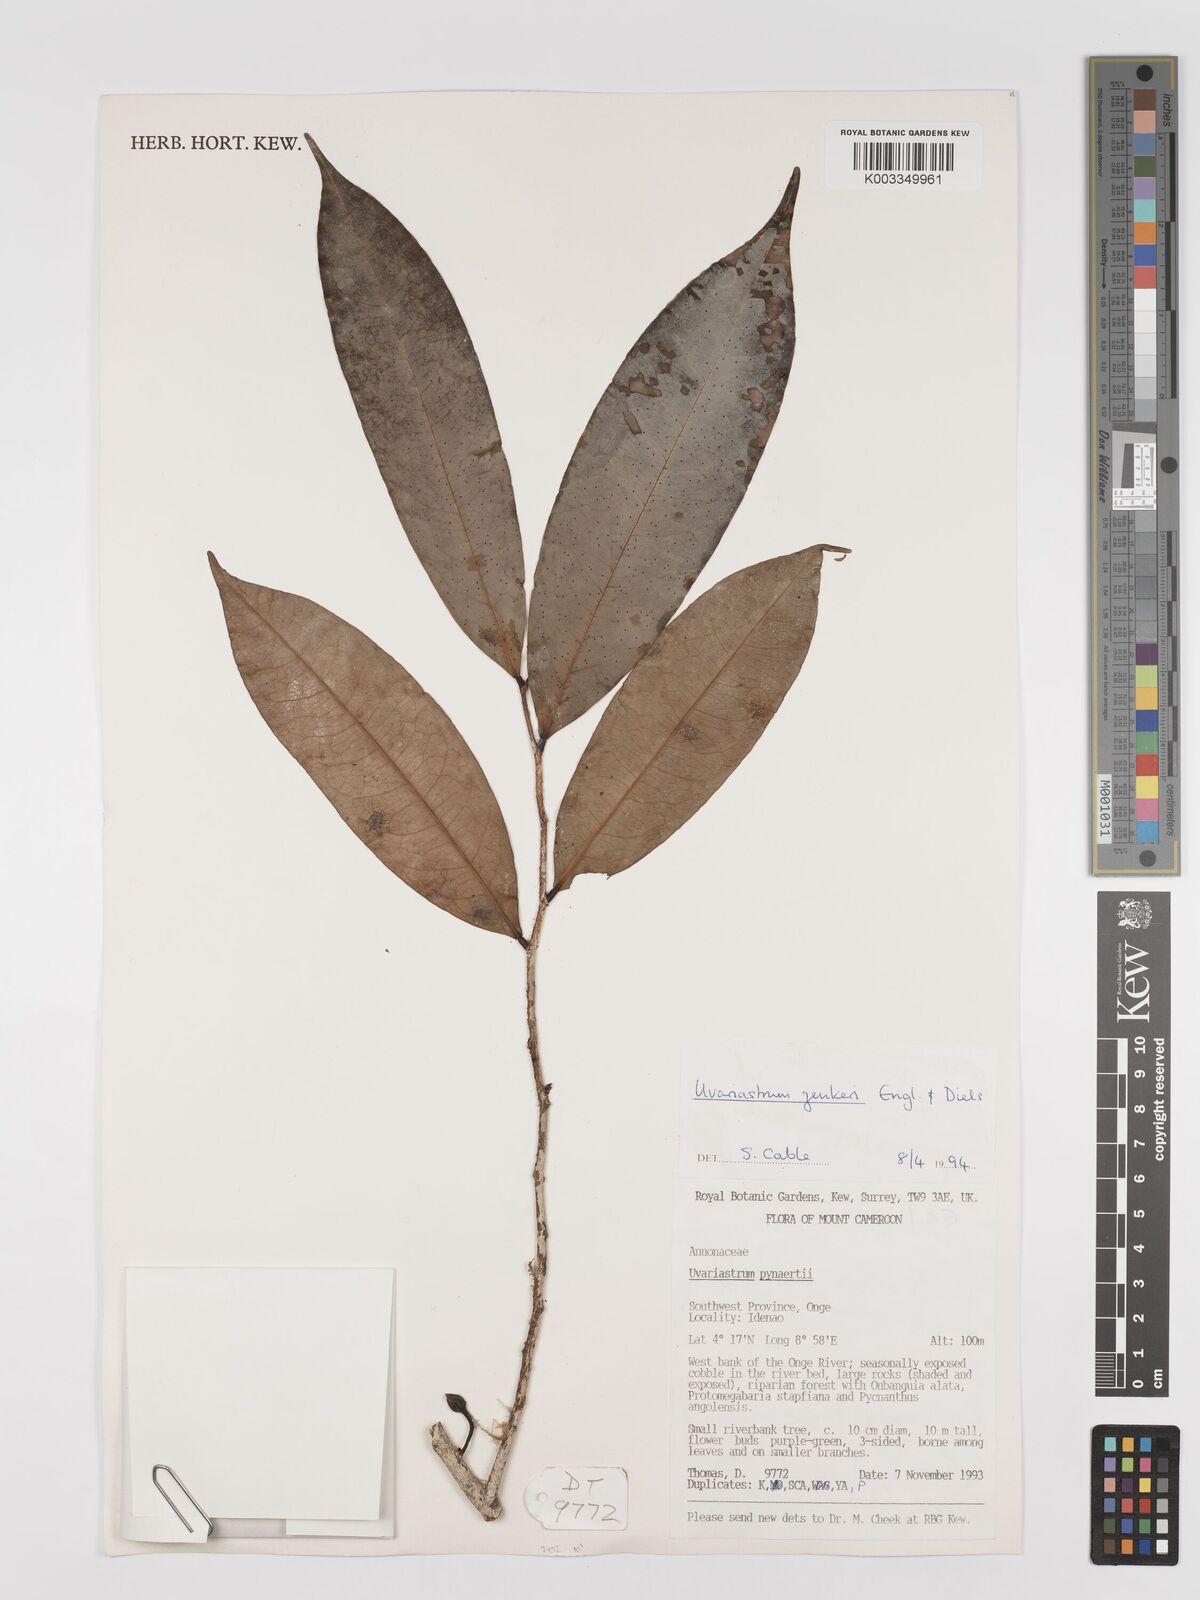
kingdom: Plantae
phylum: Tracheophyta
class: Magnoliopsida
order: Magnoliales
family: Annonaceae
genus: Uvariastrum
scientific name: Uvariastrum zenkeri
